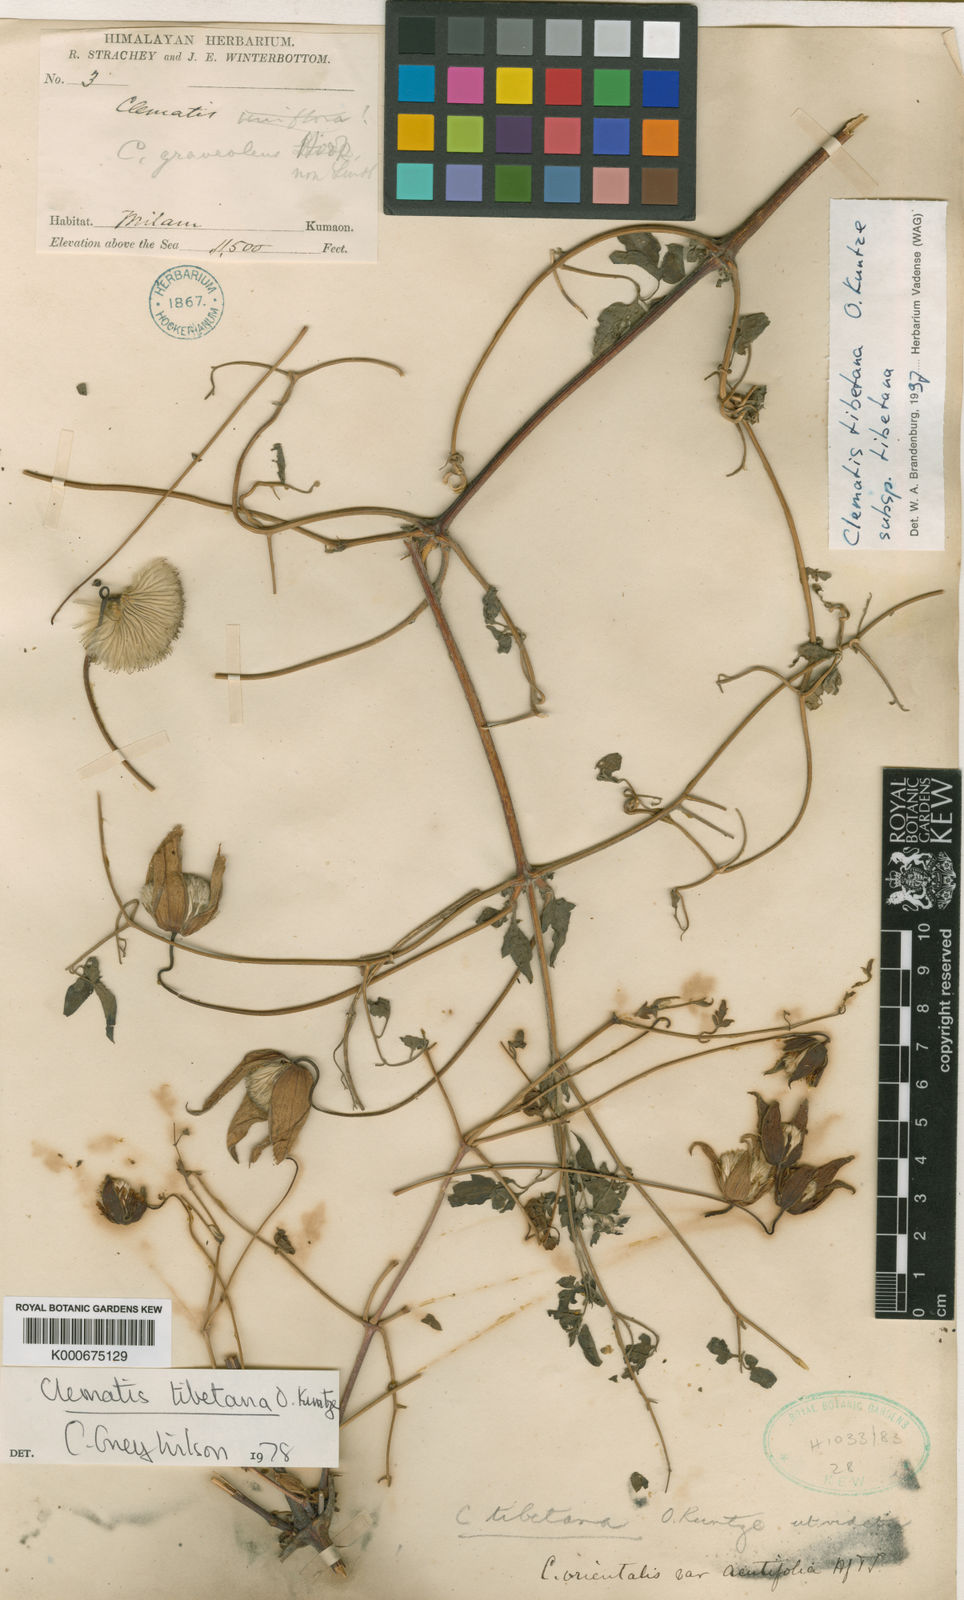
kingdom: Plantae
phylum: Tracheophyta
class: Magnoliopsida
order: Ranunculales
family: Ranunculaceae
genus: Clematis
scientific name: Clematis tibetana
